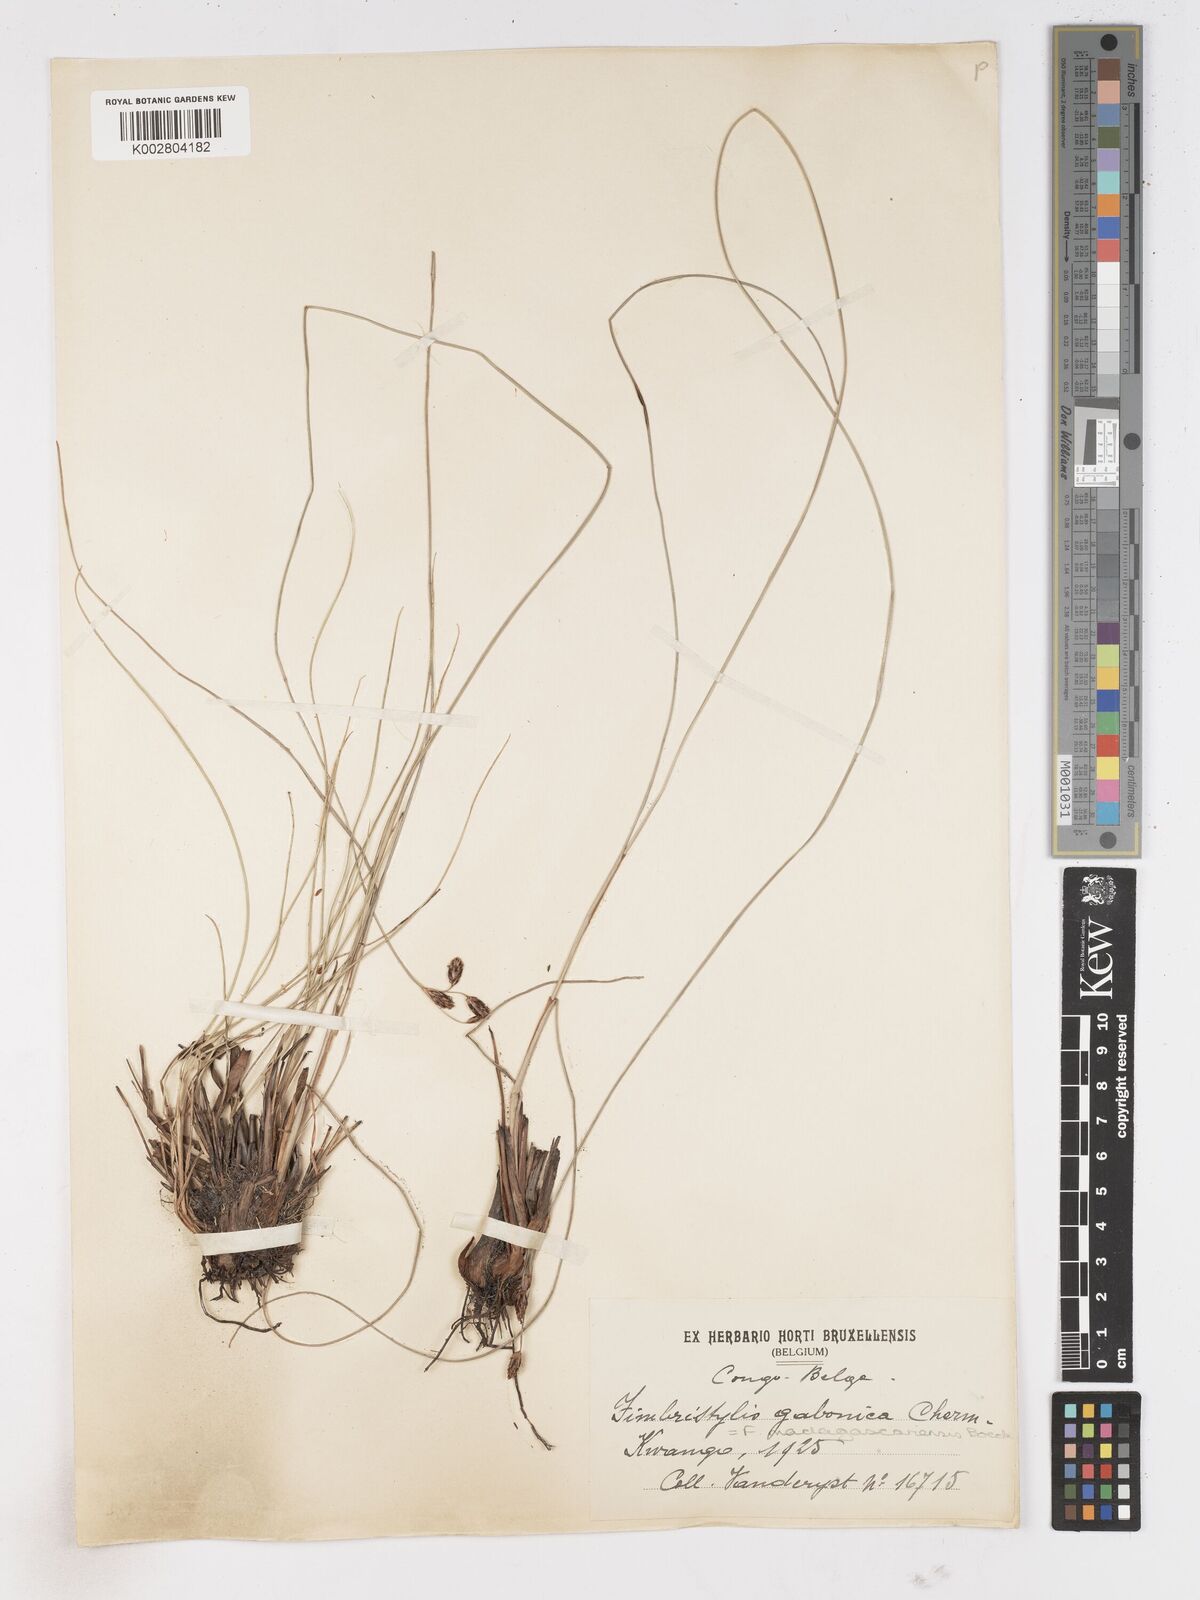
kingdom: Plantae
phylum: Tracheophyta
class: Liliopsida
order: Poales
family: Cyperaceae
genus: Fimbristylis
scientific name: Fimbristylis madagascariensis
